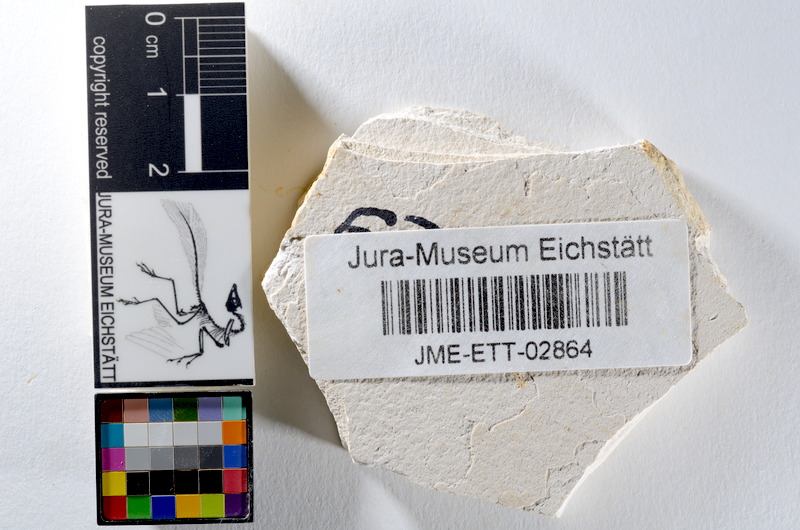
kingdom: Animalia
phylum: Chordata
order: Salmoniformes
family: Orthogonikleithridae
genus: Orthogonikleithrus
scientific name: Orthogonikleithrus hoelli
